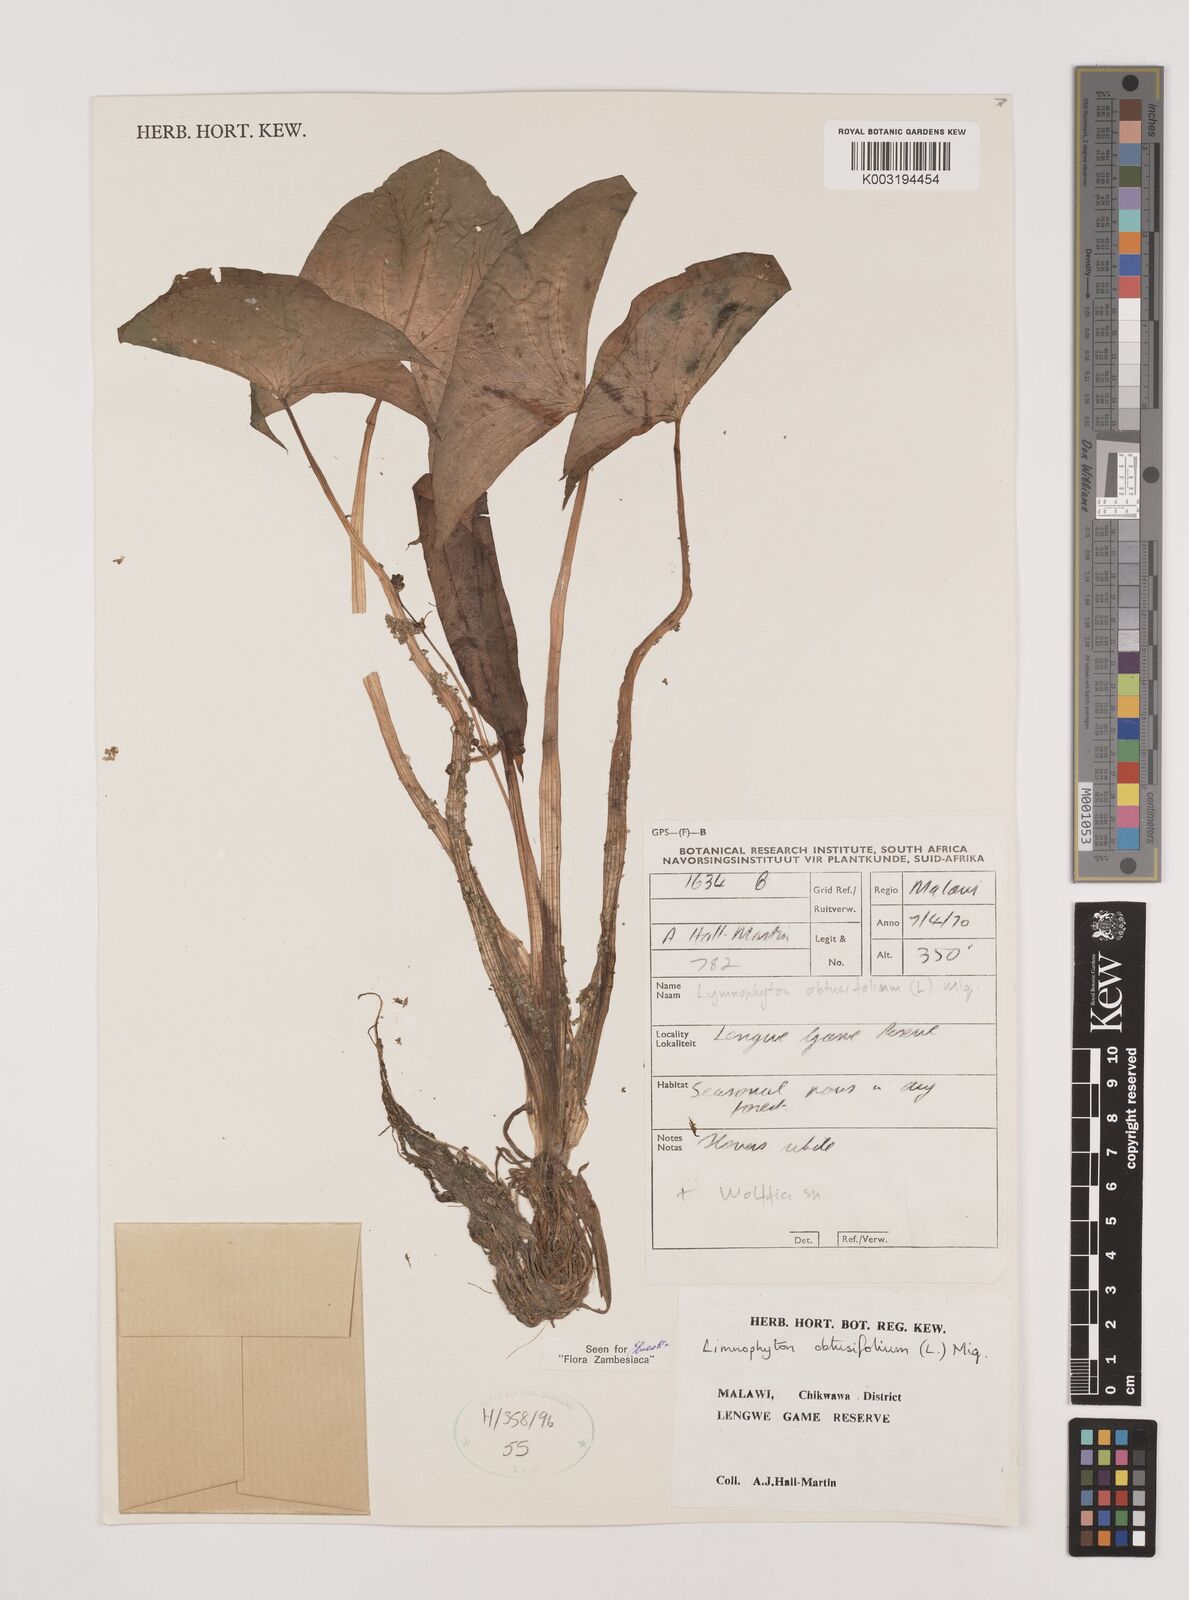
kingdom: Plantae
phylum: Tracheophyta
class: Liliopsida
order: Alismatales
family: Alismataceae
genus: Limnophyton
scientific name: Limnophyton obtusifolium
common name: Arrow head
